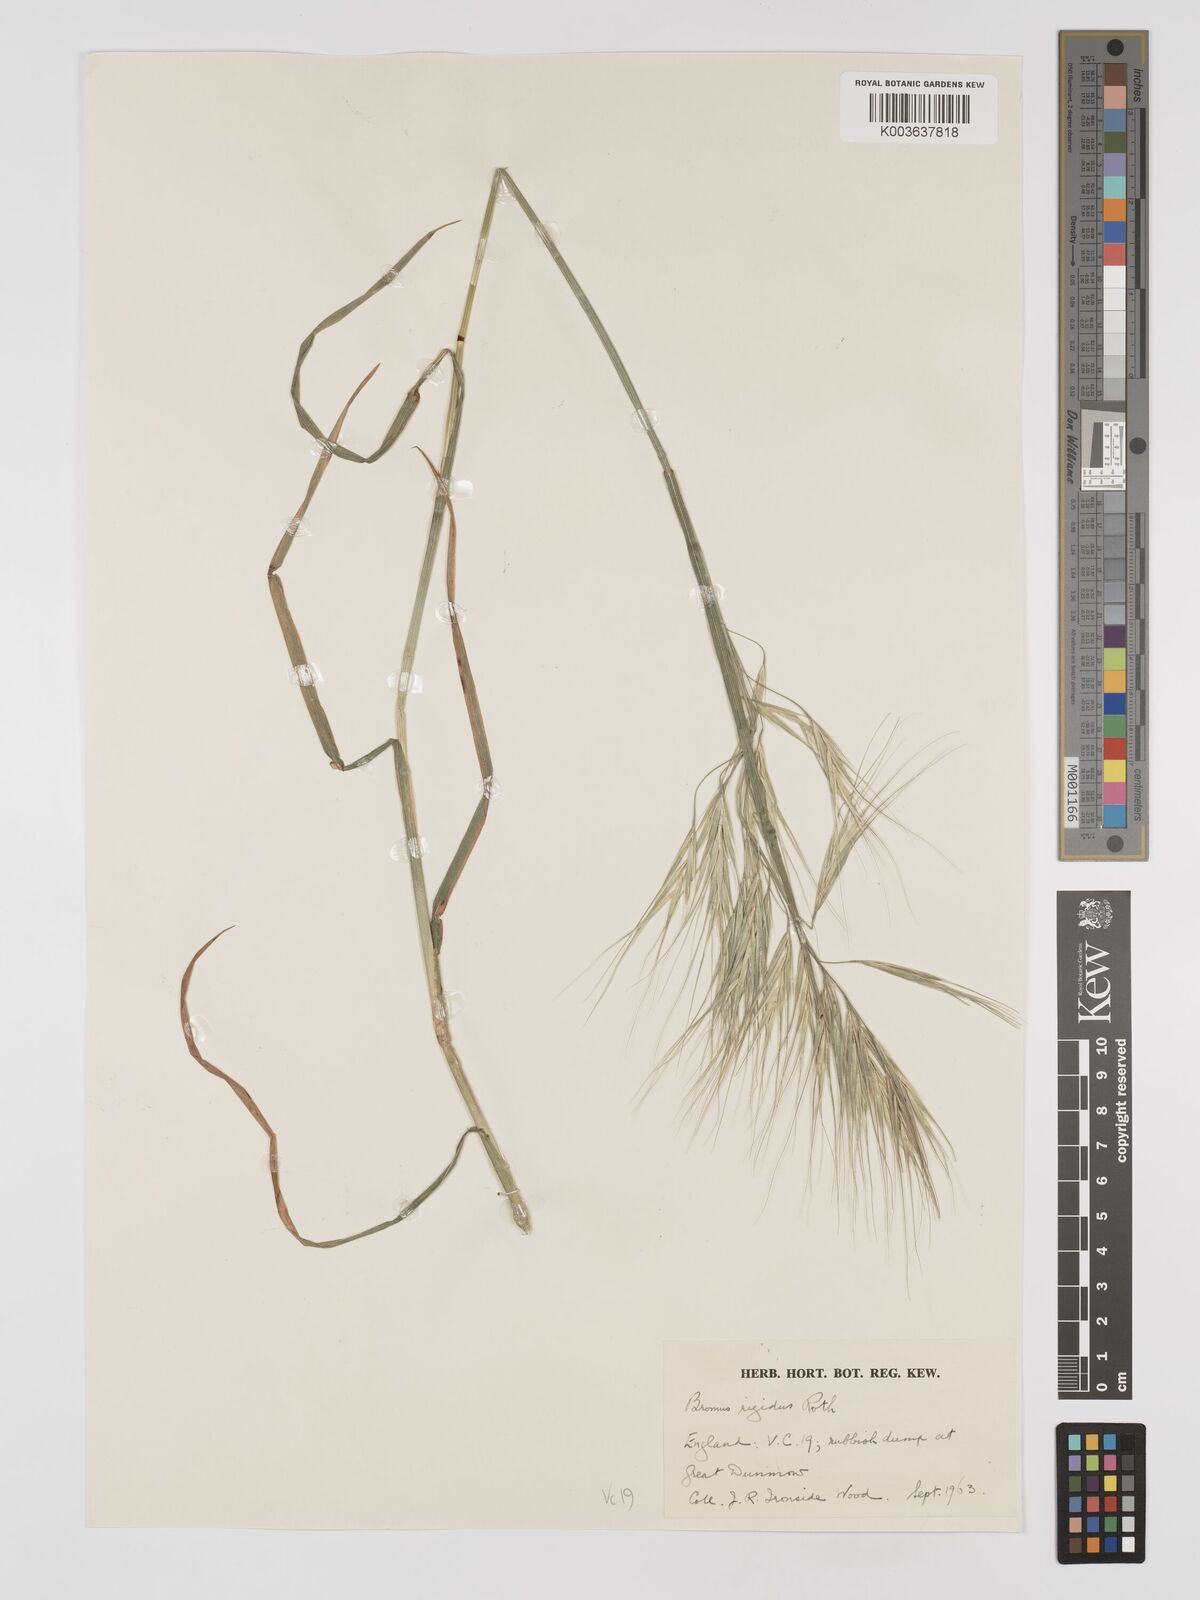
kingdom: Plantae
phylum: Tracheophyta
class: Liliopsida
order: Poales
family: Poaceae
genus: Bromus
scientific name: Bromus
